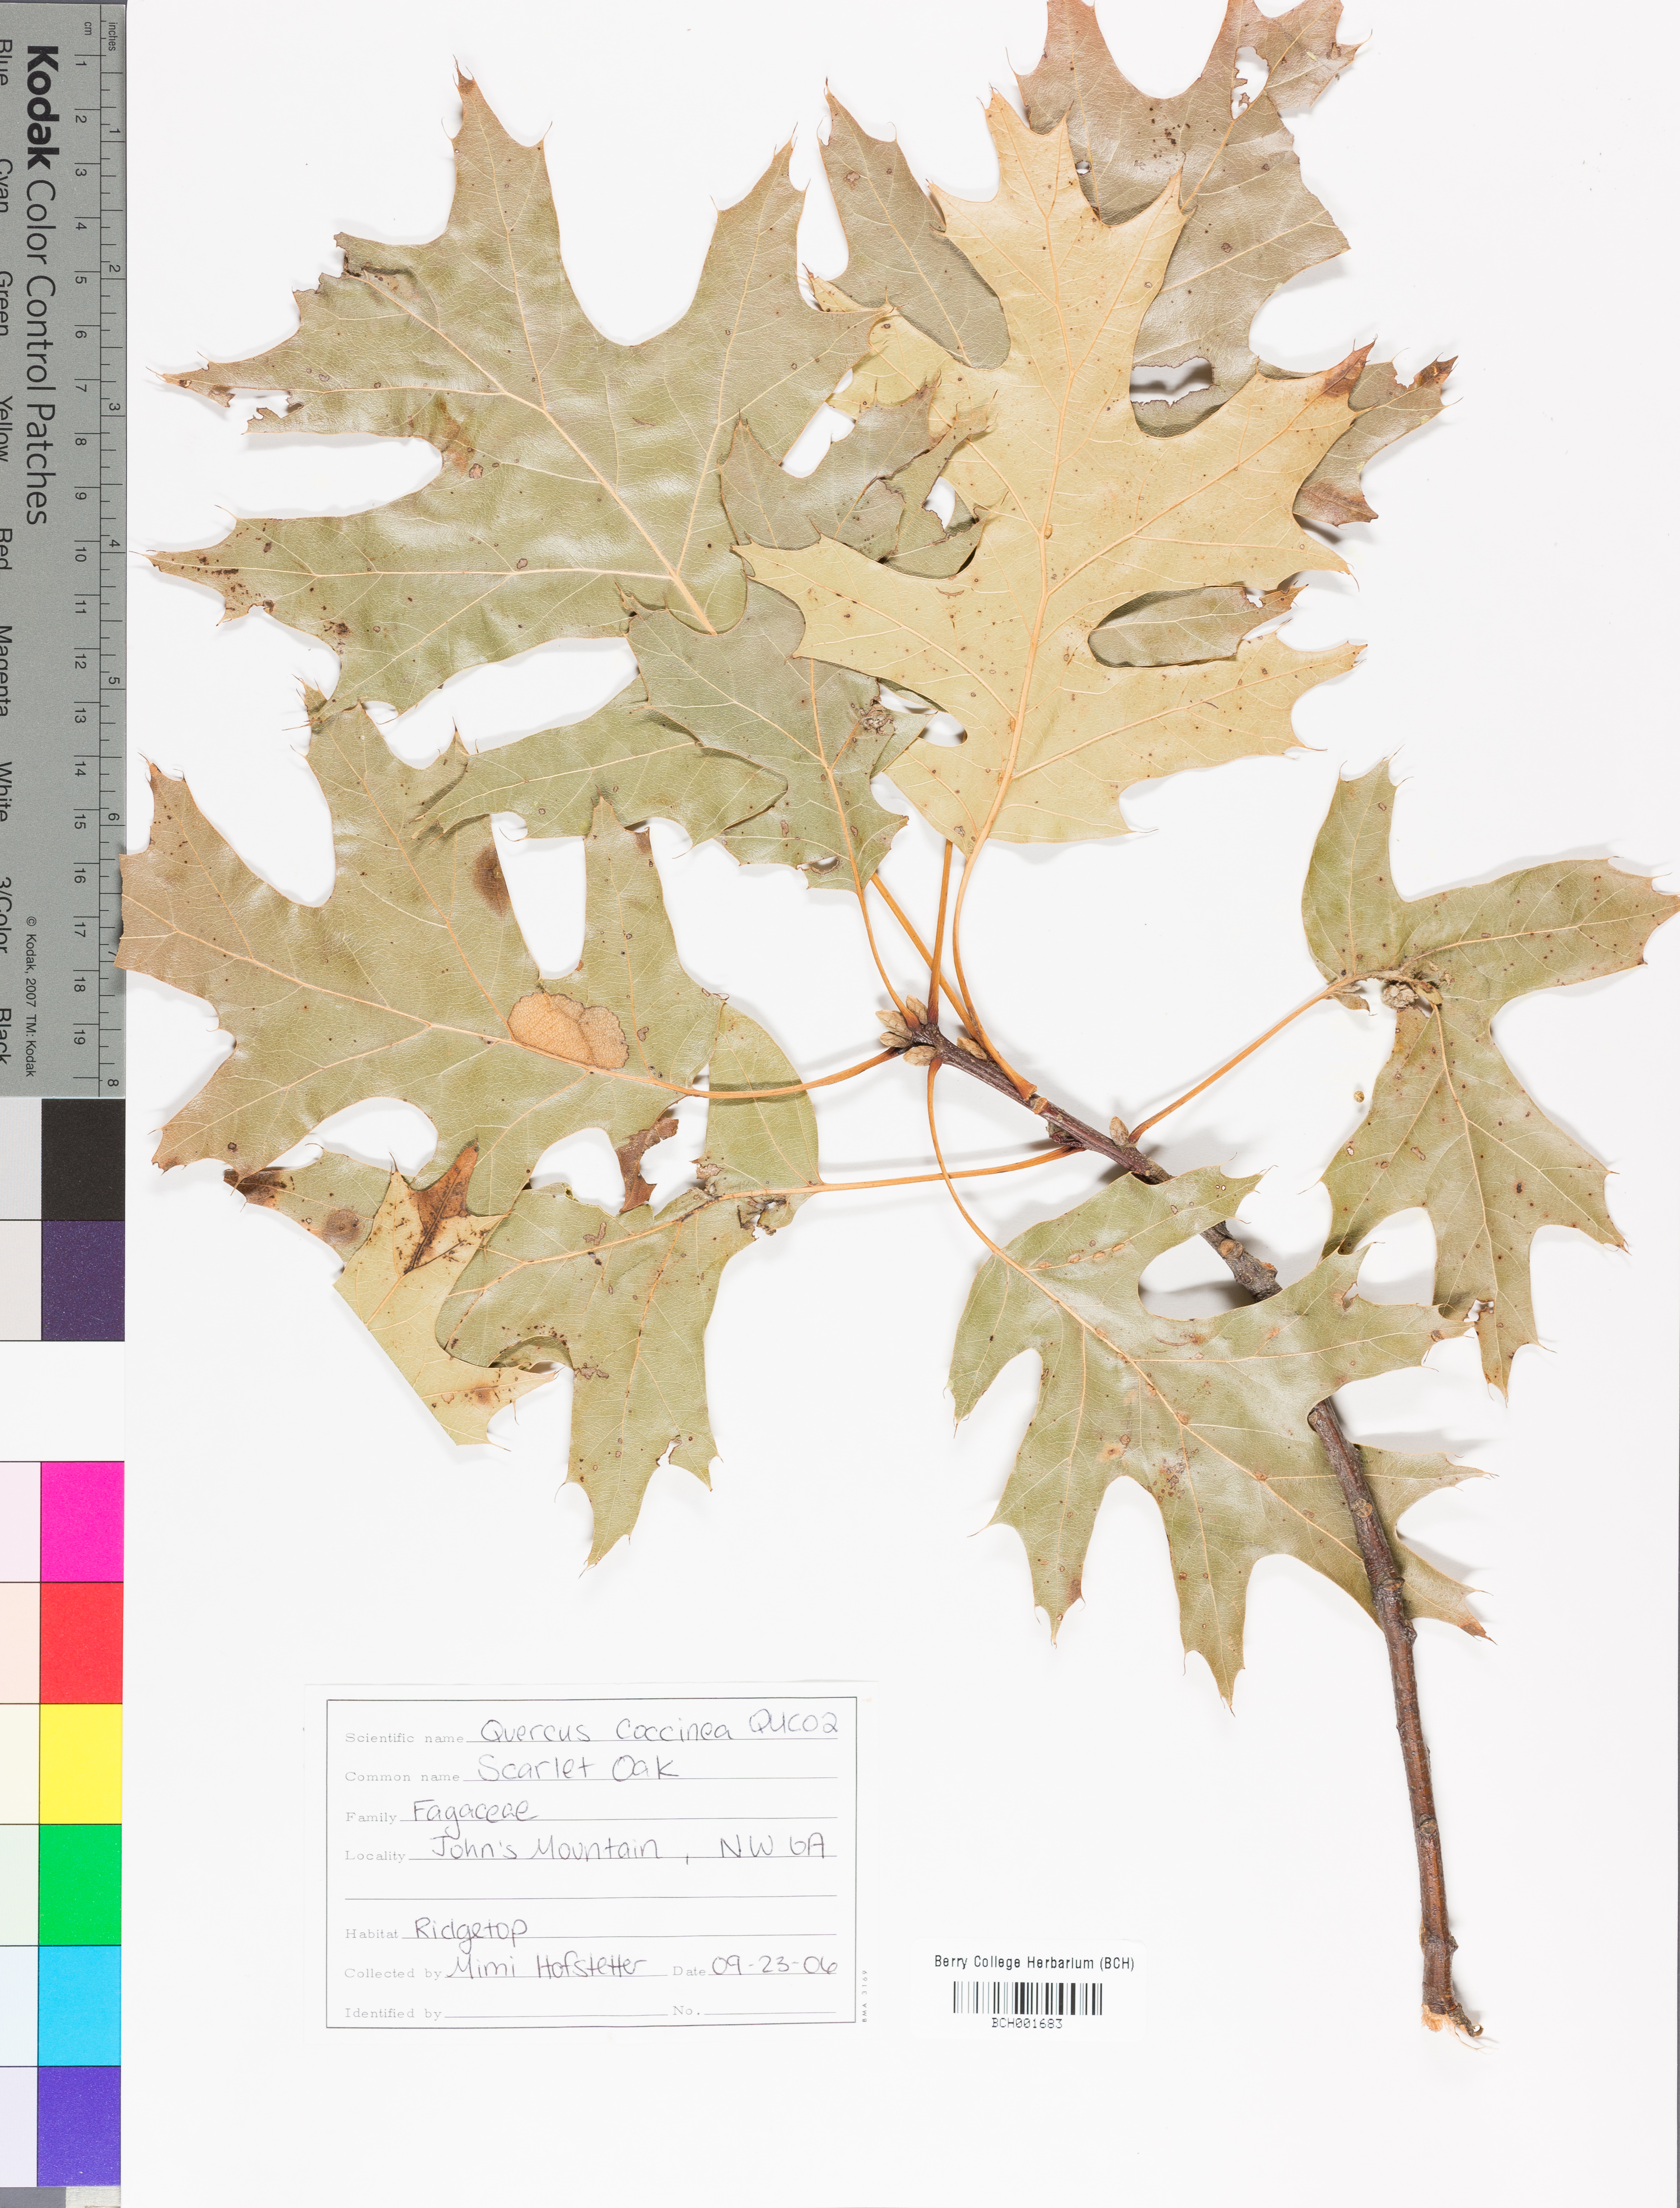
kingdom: Plantae
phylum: Tracheophyta
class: Magnoliopsida
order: Fagales
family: Fagaceae
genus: Quercus
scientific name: Quercus coccinea
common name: Scarlet oak
